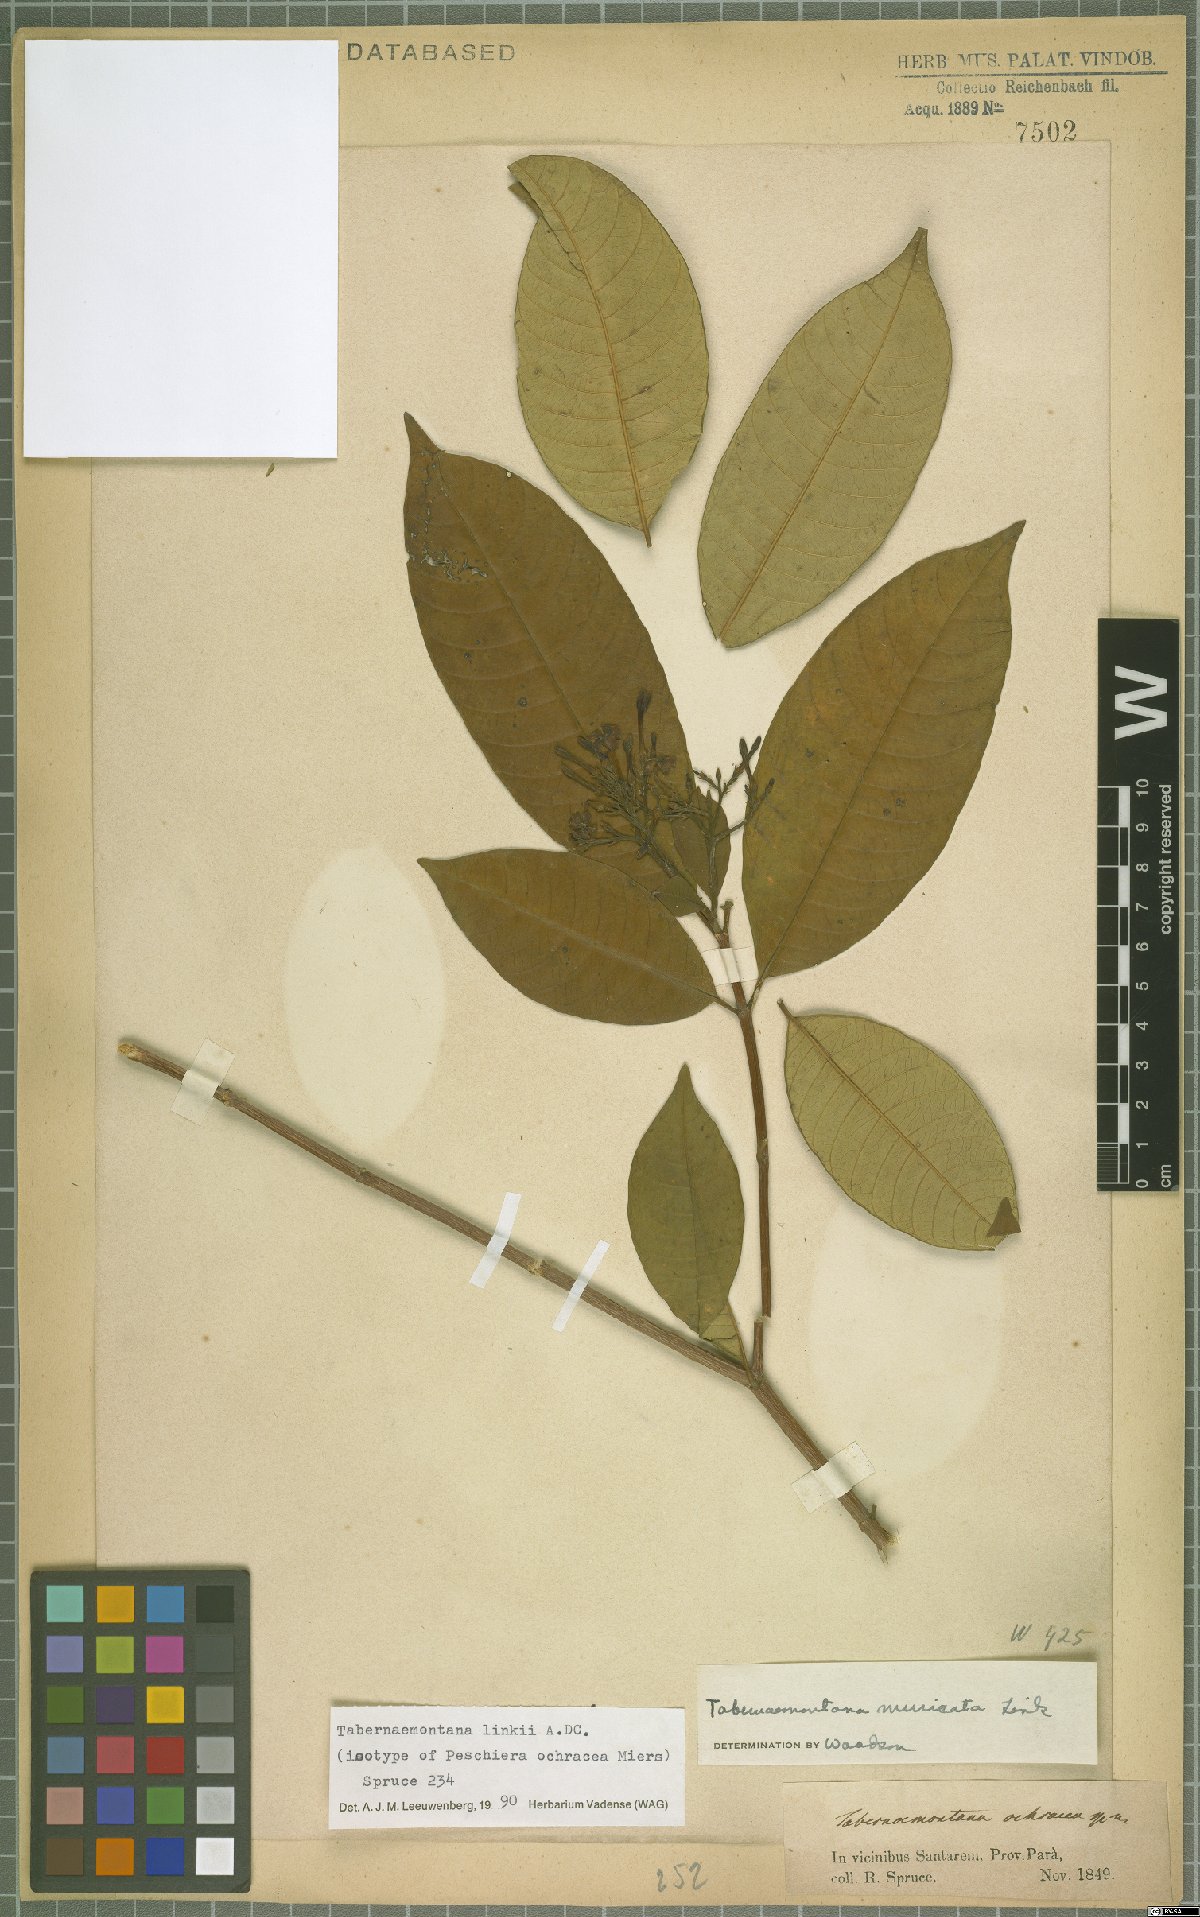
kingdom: Plantae
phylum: Tracheophyta
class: Magnoliopsida
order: Gentianales
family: Apocynaceae
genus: Tabernaemontana
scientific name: Tabernaemontana linkii
